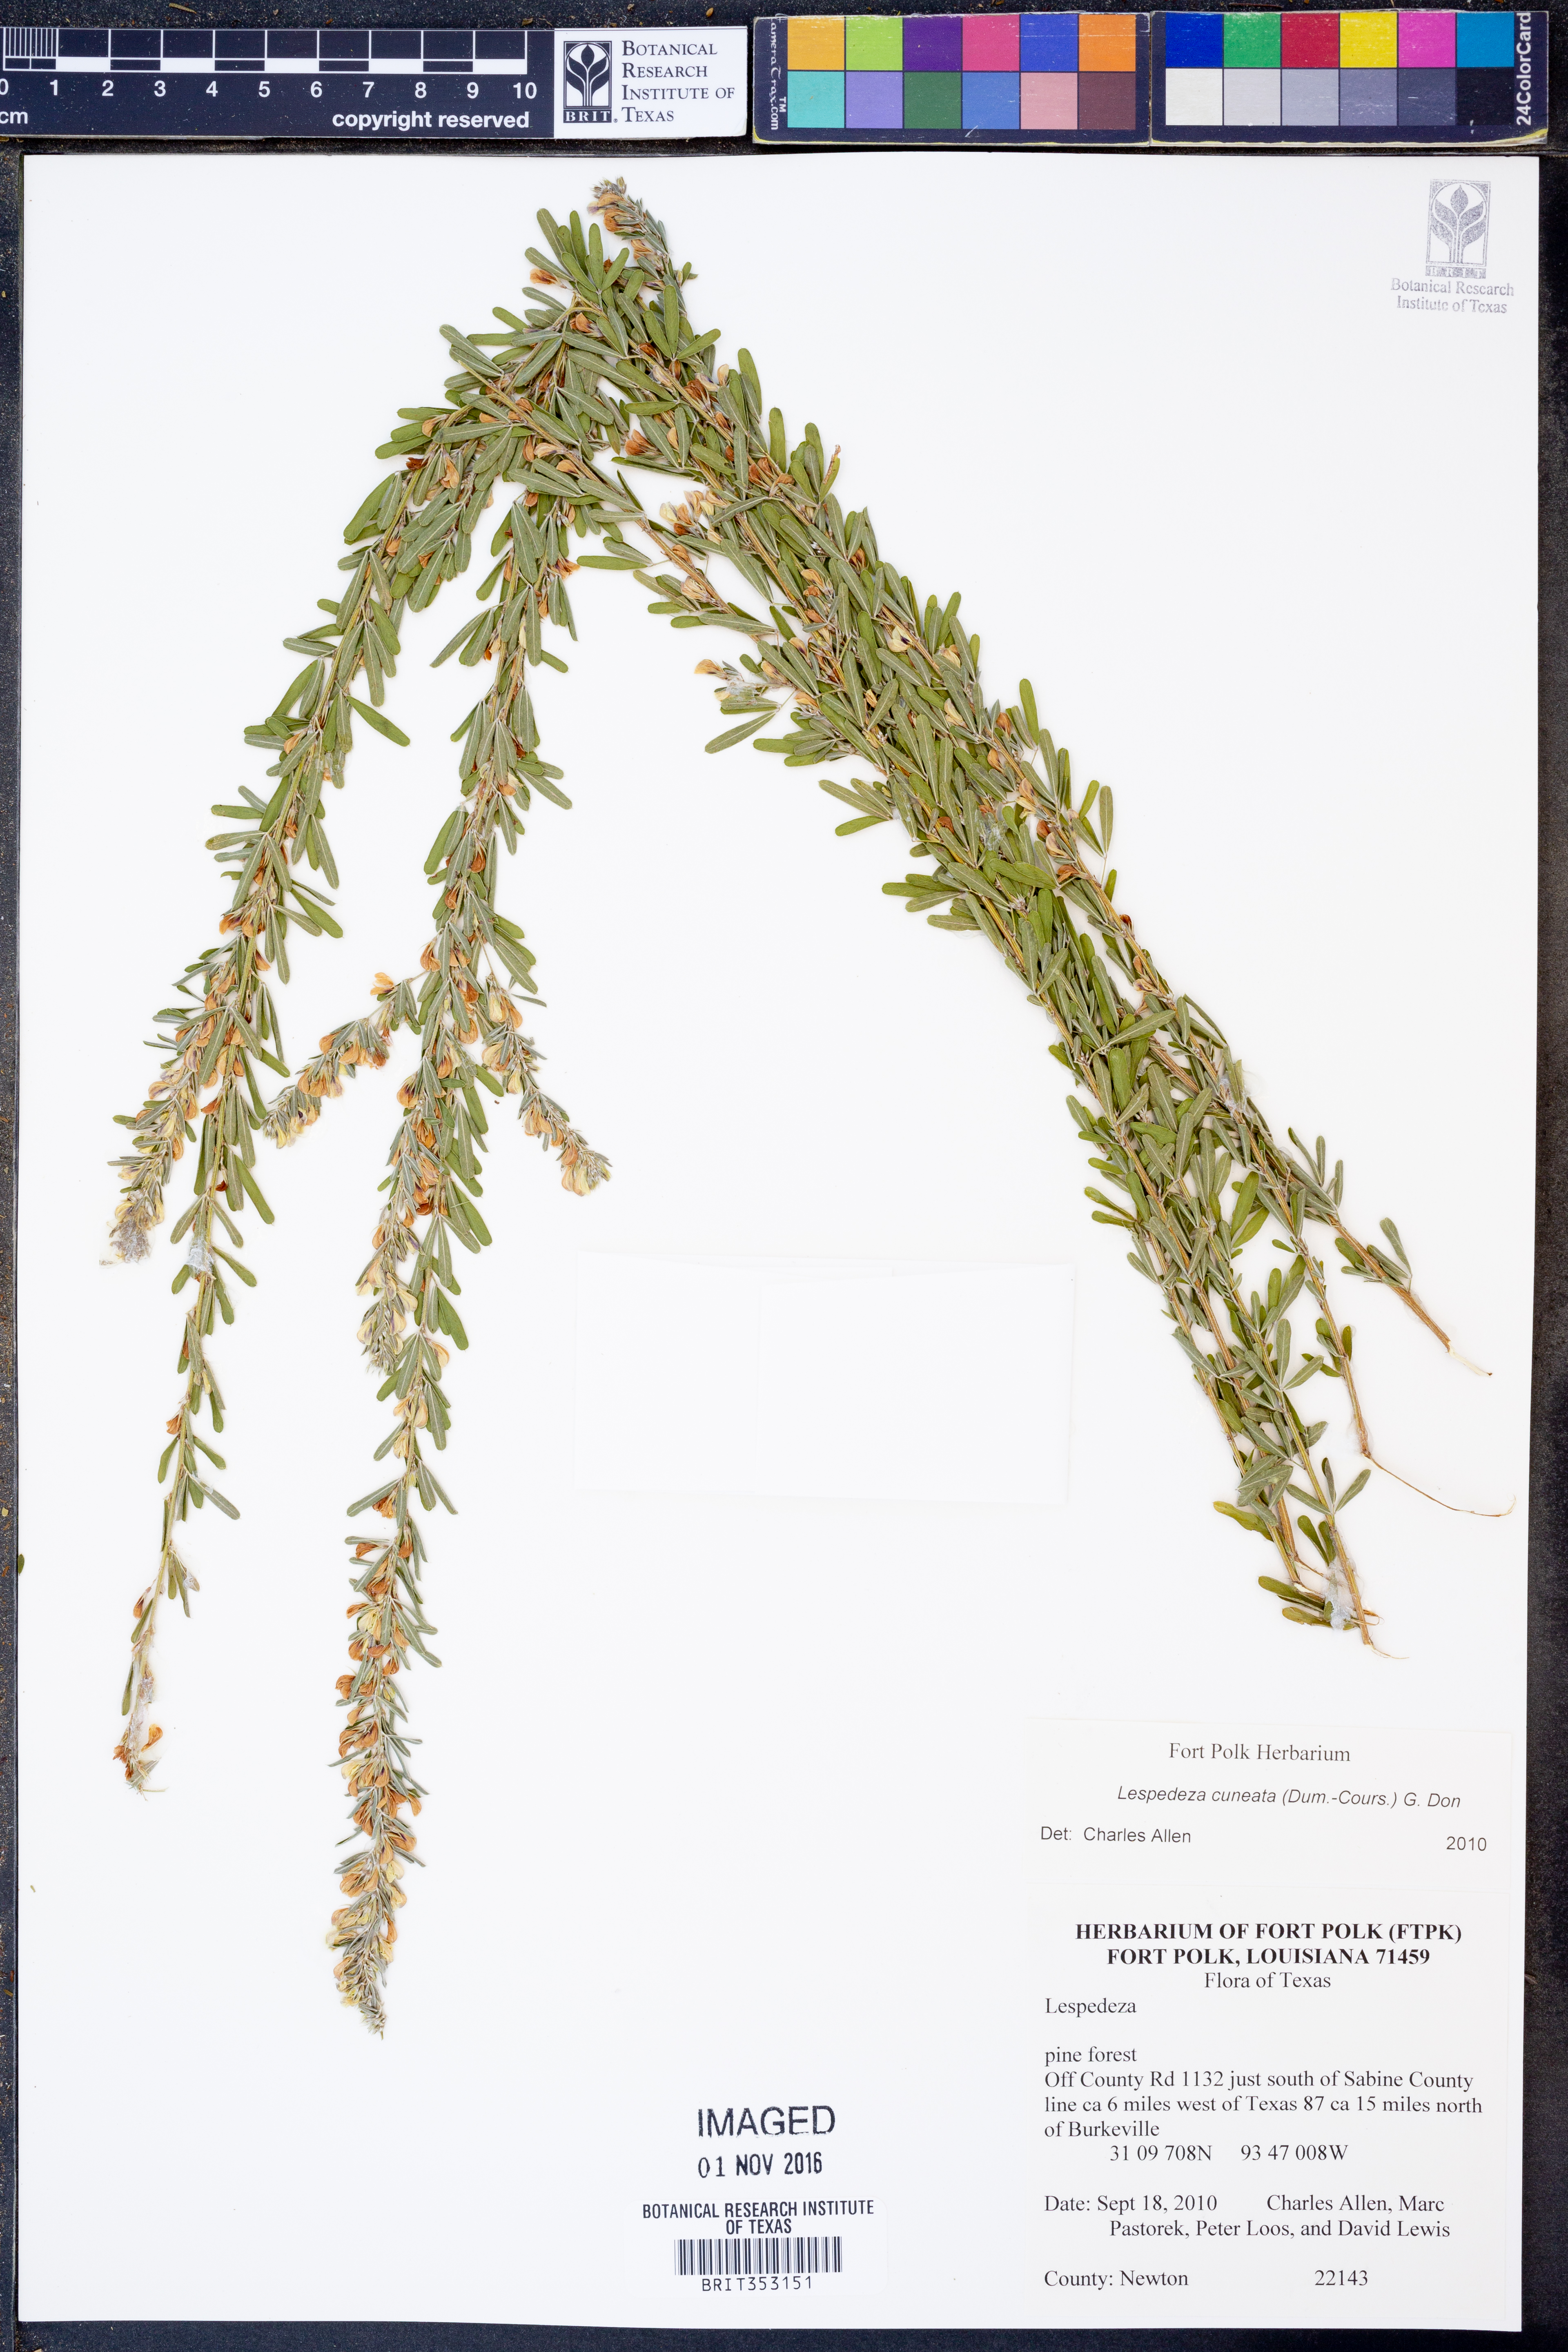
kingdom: Plantae
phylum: Tracheophyta
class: Magnoliopsida
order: Fabales
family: Fabaceae
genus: Lespedeza
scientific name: Lespedeza cuneata
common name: Chinese bush-clover
